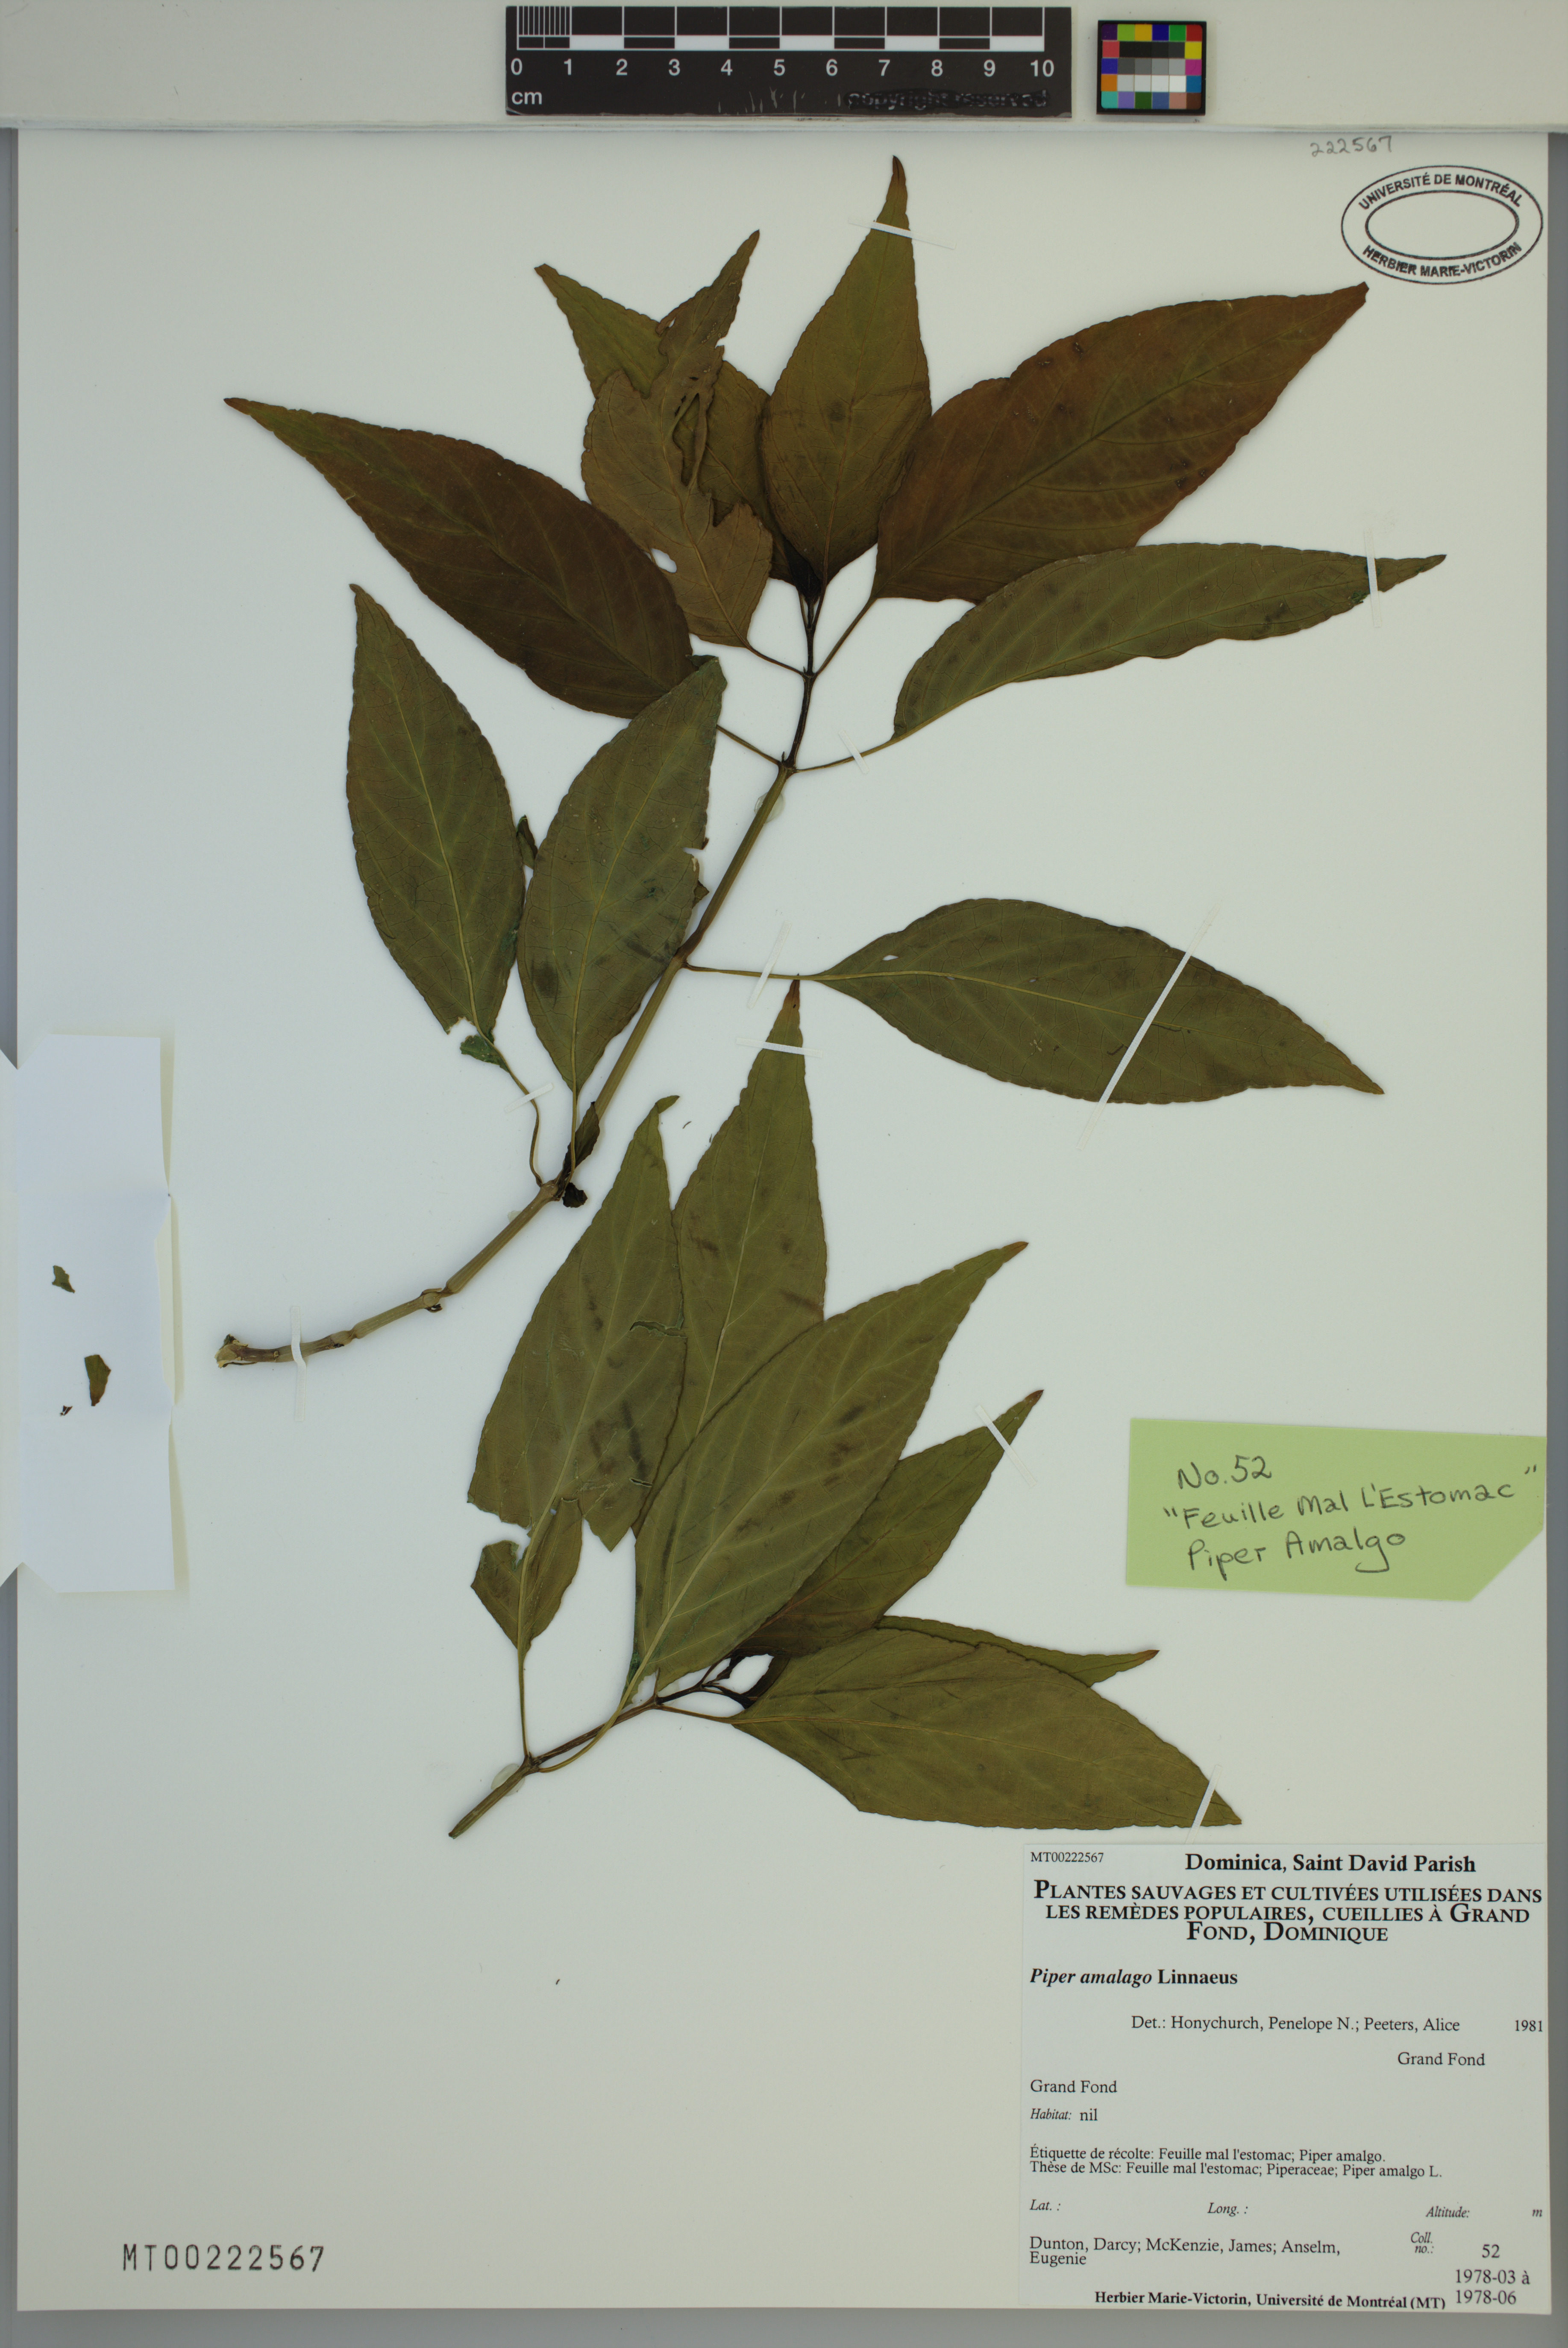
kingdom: Plantae
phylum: Tracheophyta
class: Magnoliopsida
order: Piperales
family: Piperaceae
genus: Piper
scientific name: Piper amalago
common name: Pepper-elder
